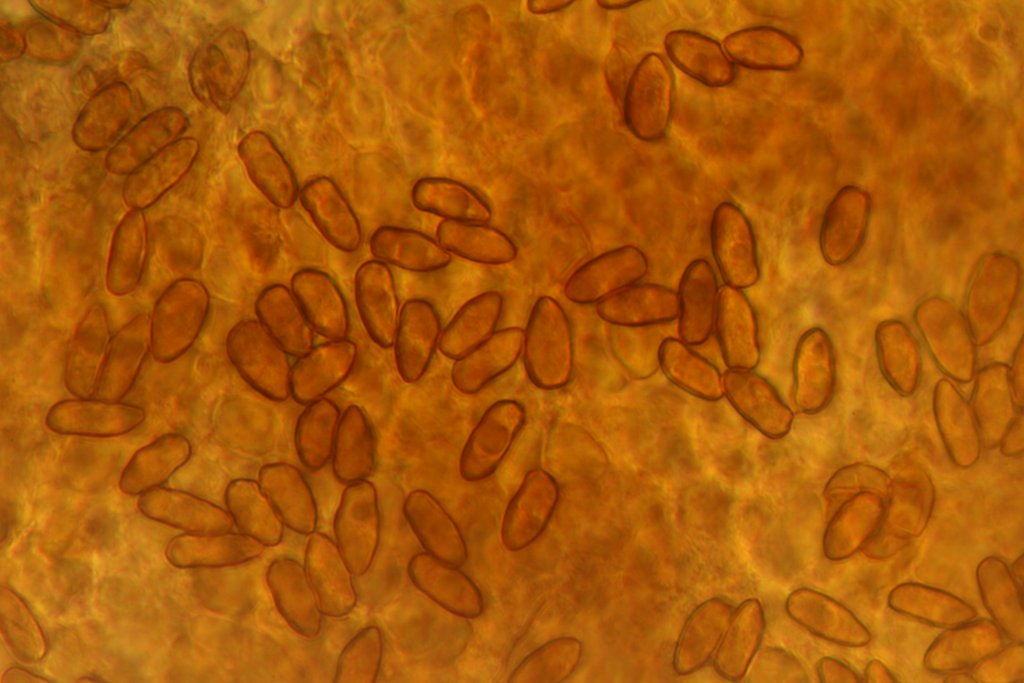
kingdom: Fungi
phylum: Basidiomycota
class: Agaricomycetes
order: Agaricales
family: Inocybaceae
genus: Inocybe
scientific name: Inocybe lacera
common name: laset trævlhat
